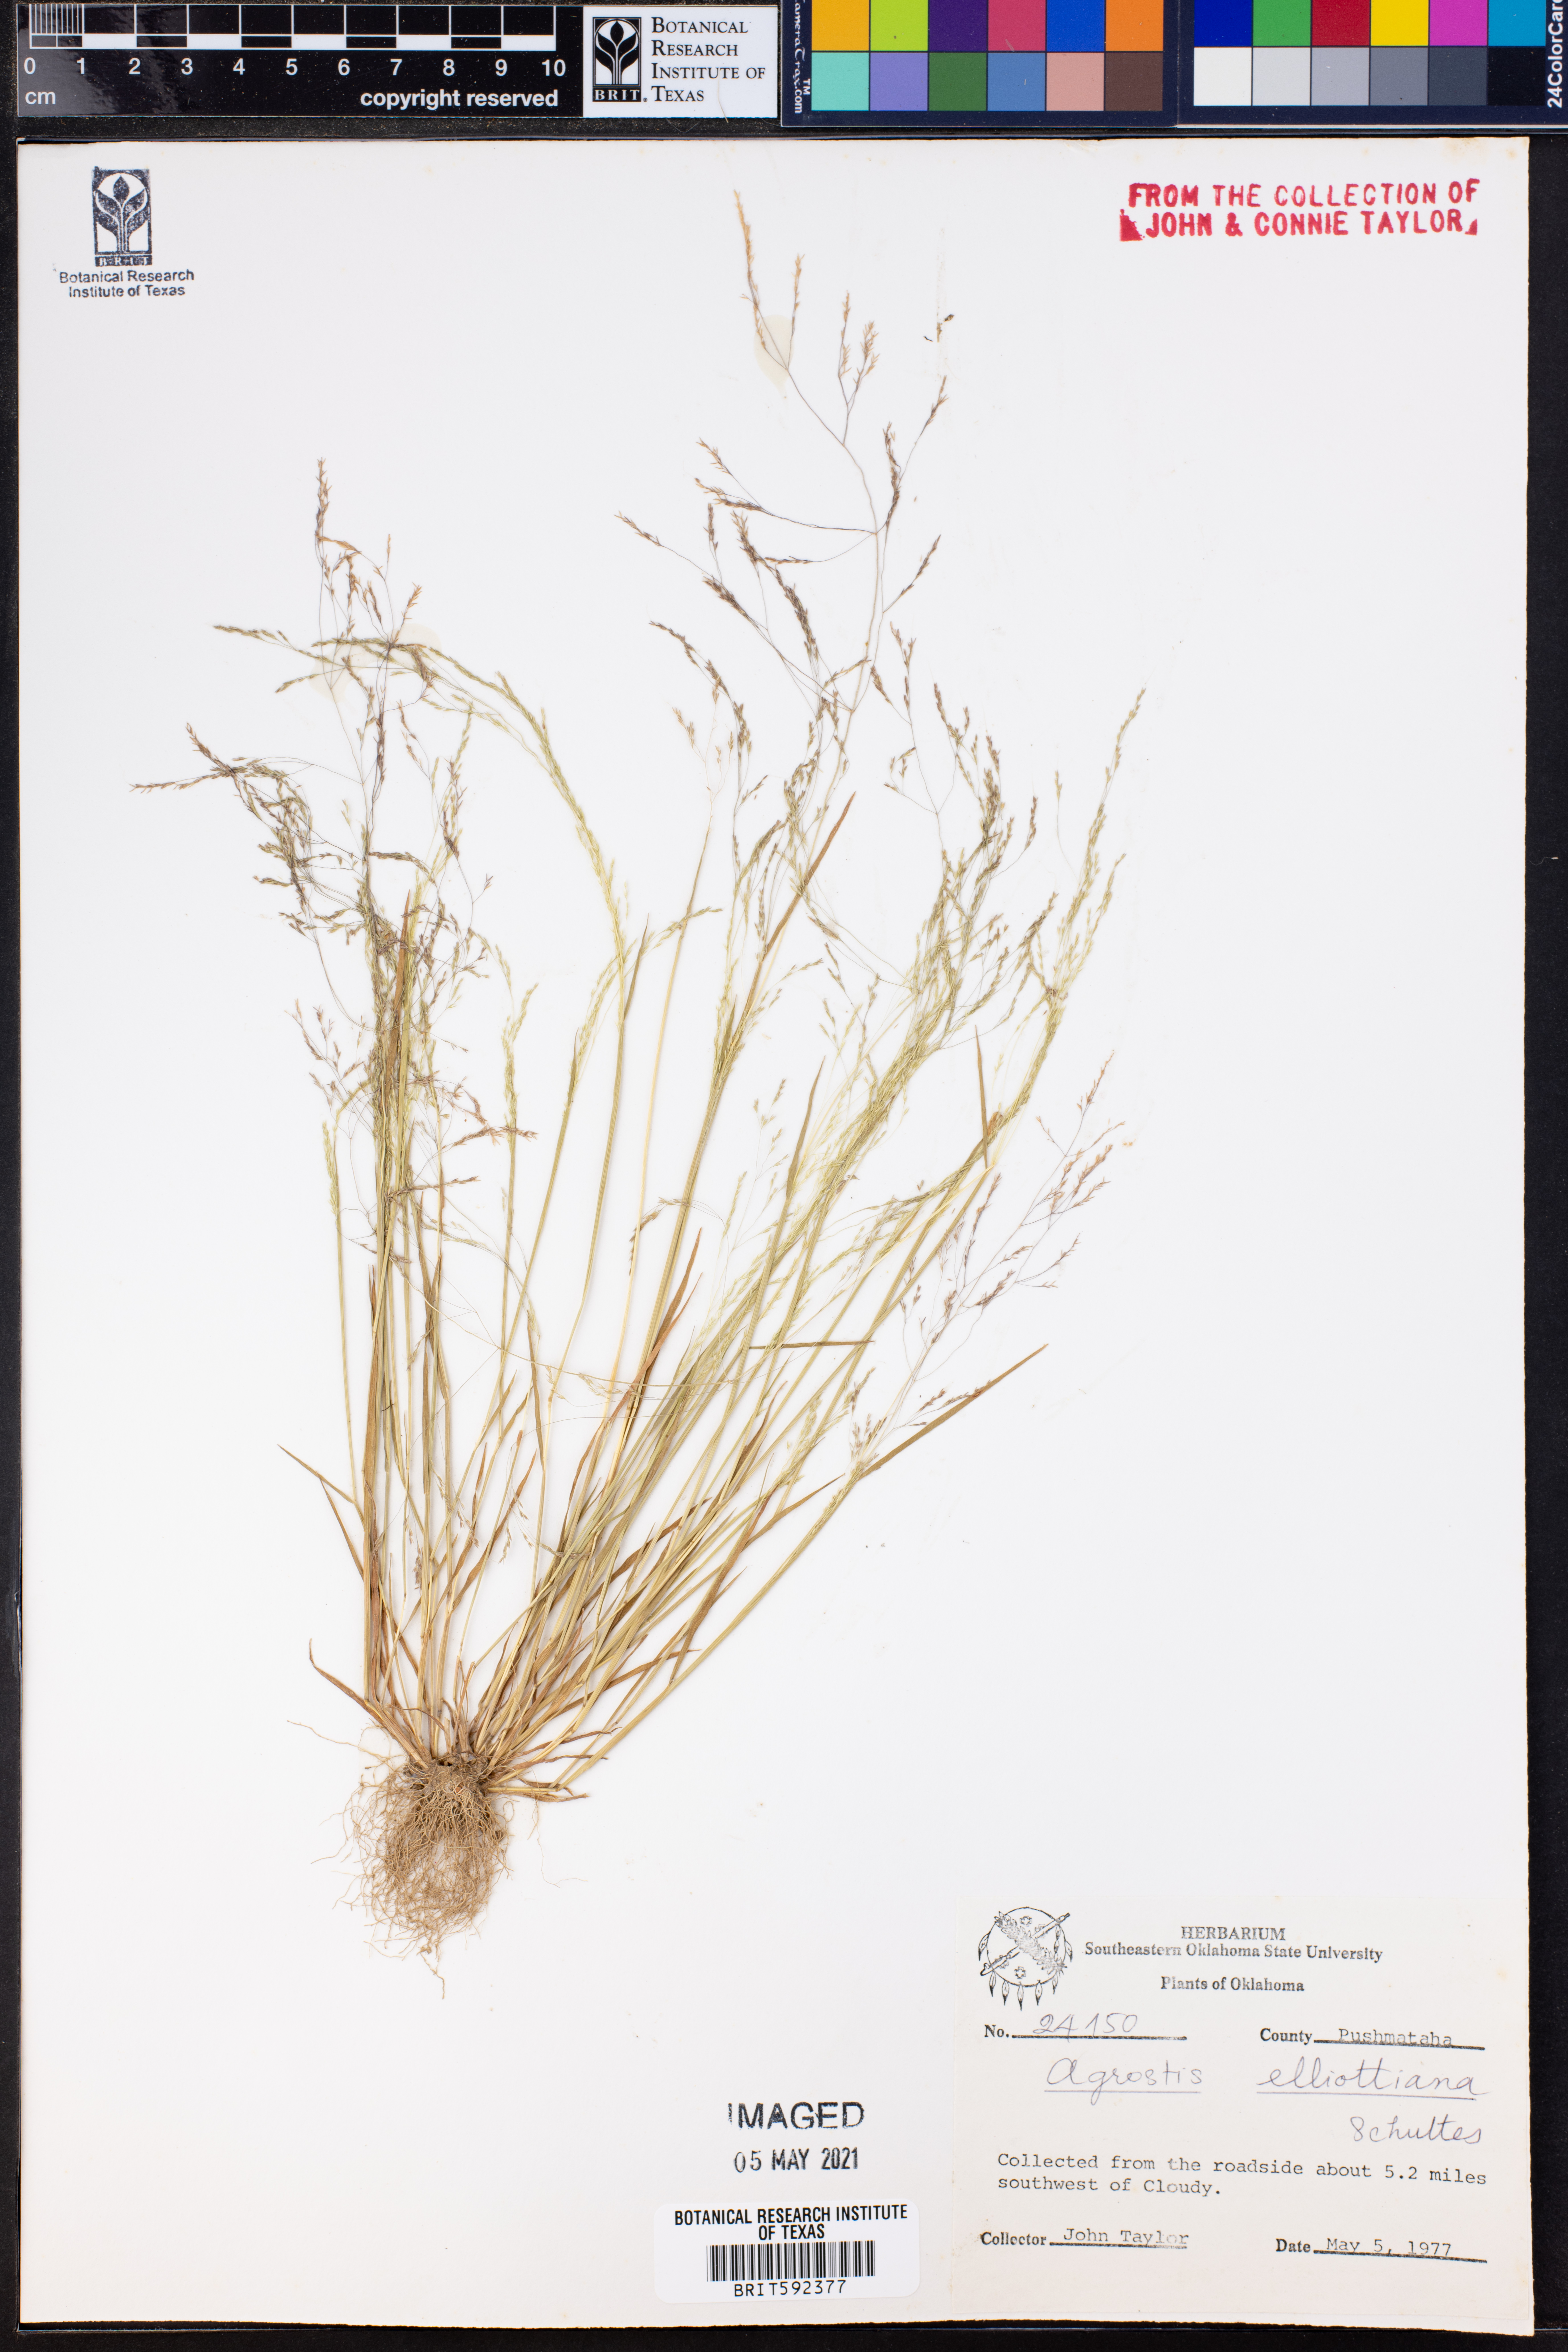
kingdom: Plantae
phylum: Tracheophyta
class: Liliopsida
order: Poales
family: Poaceae
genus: Agrostis
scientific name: Agrostis elliottiana
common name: Elliott's bent
